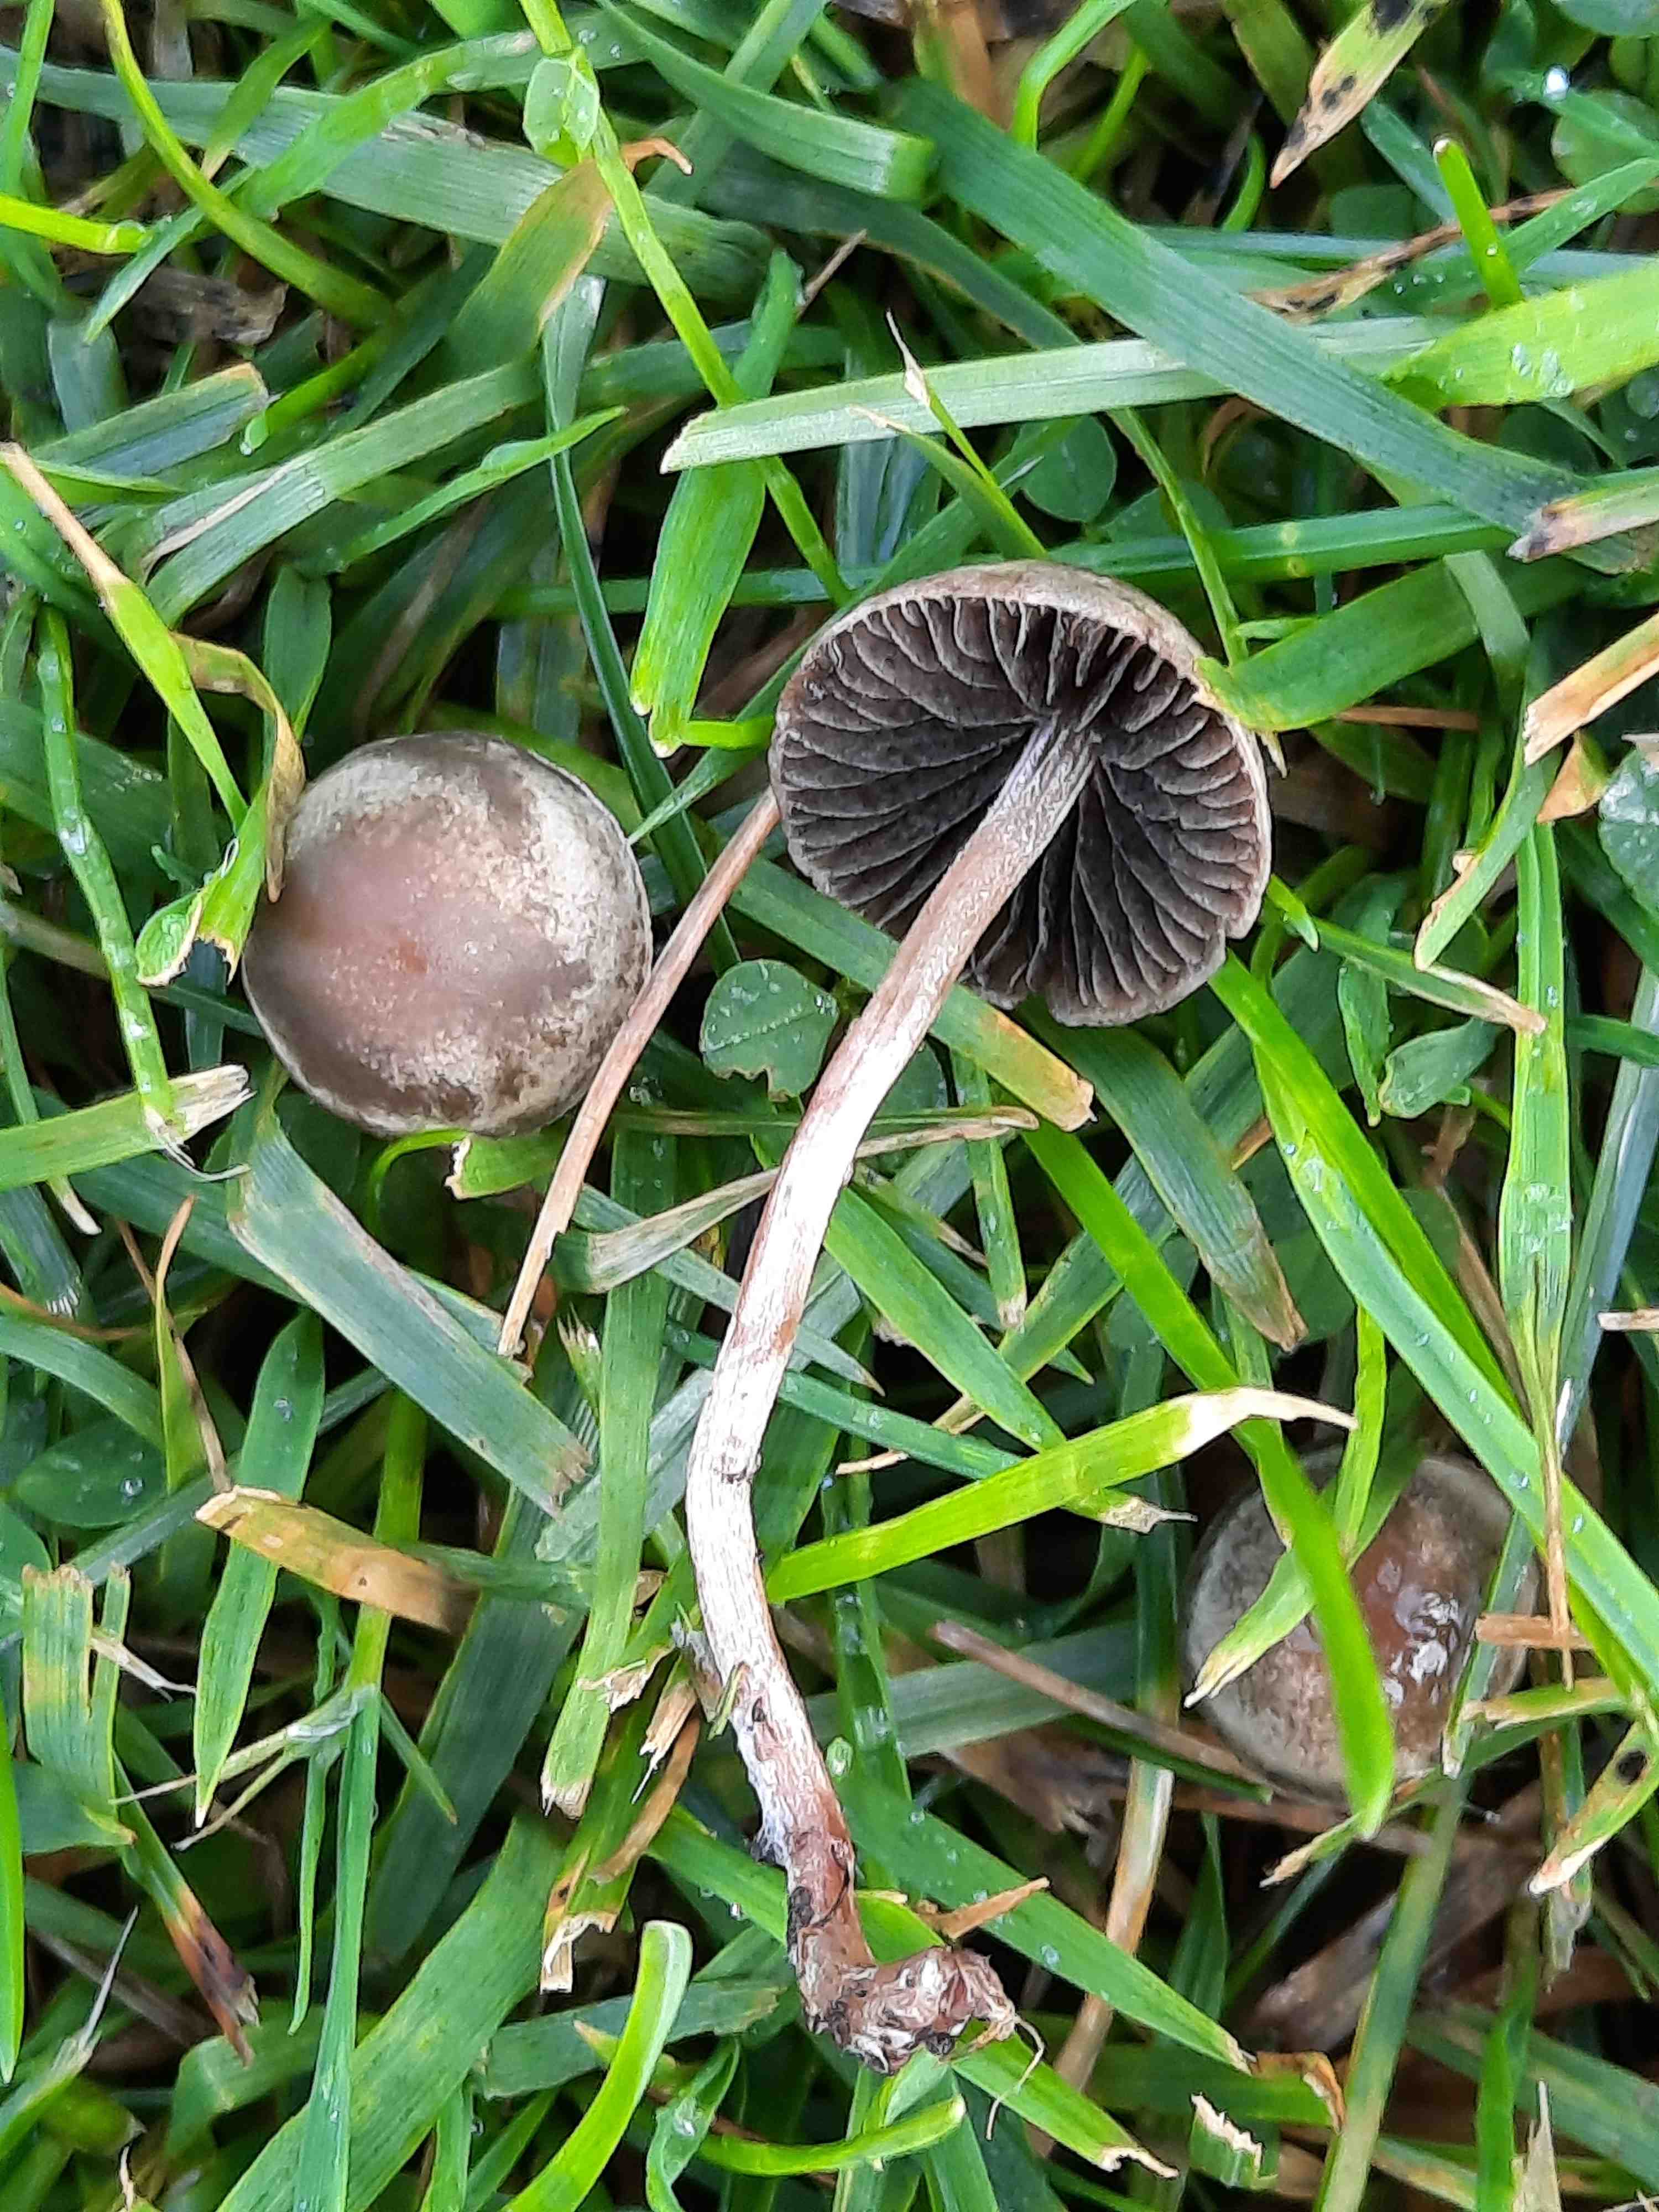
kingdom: Fungi
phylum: Basidiomycota
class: Agaricomycetes
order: Agaricales
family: Bolbitiaceae
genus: Panaeolina
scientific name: Panaeolina foenisecii
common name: høslætsvamp
